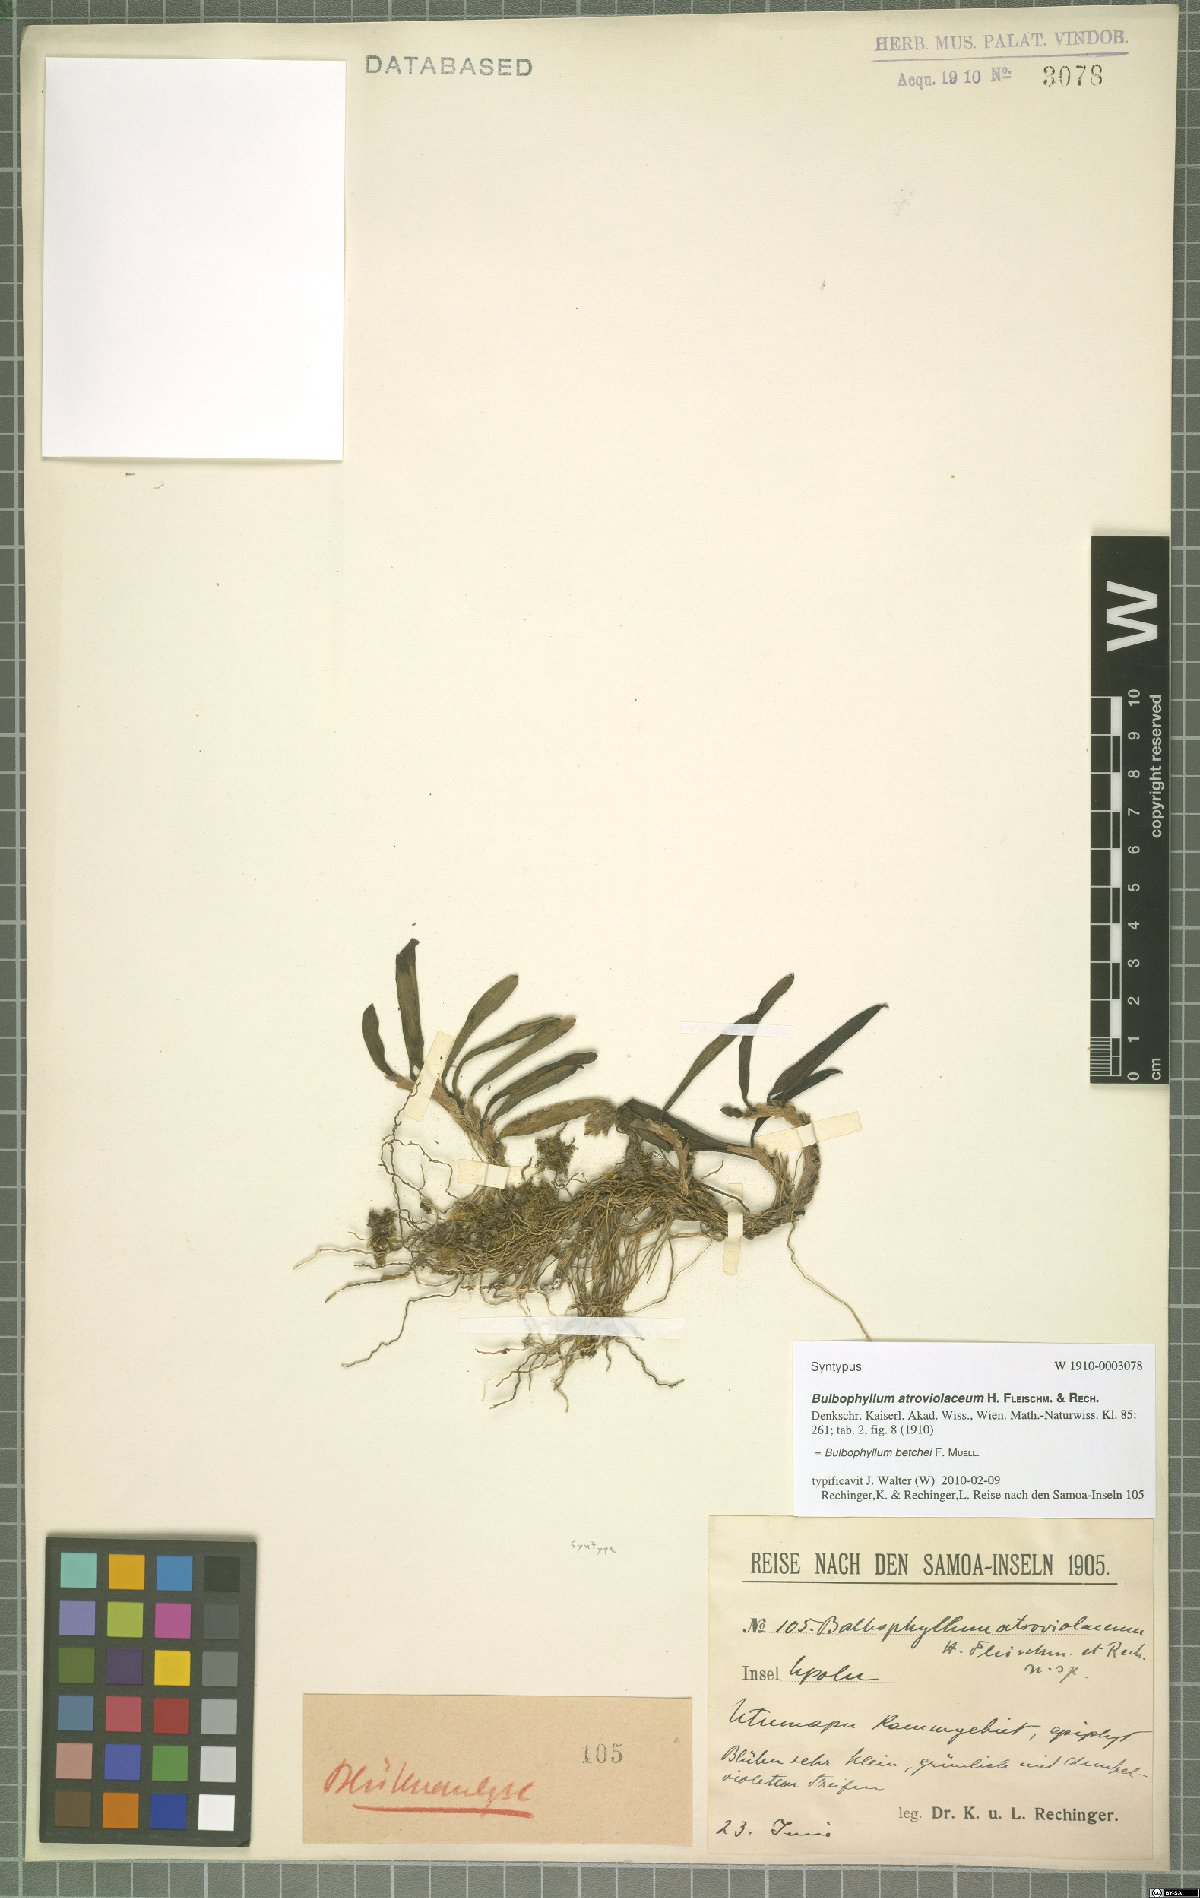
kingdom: Plantae
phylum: Tracheophyta
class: Liliopsida
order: Asparagales
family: Orchidaceae
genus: Bulbophyllum
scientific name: Bulbophyllum betchei
